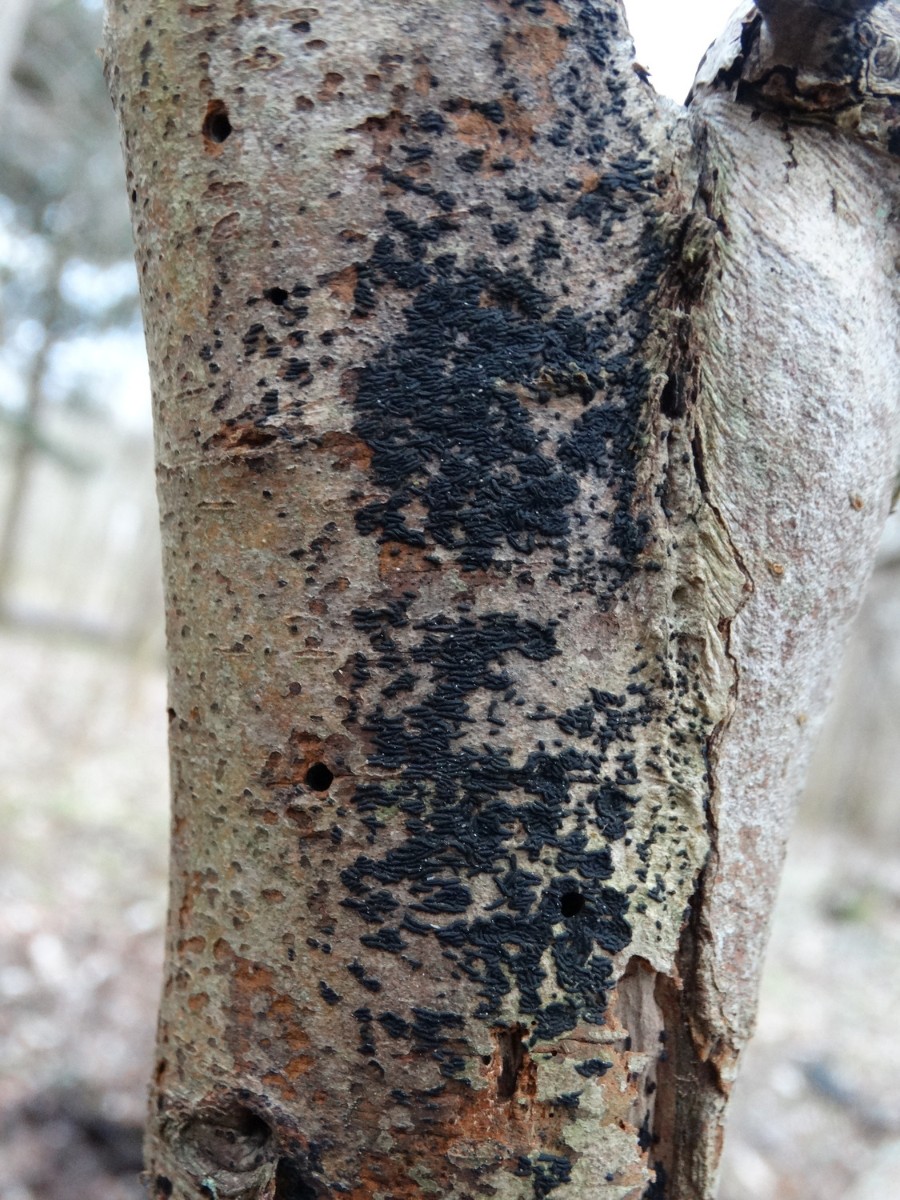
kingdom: Fungi
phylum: Ascomycota
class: Dothideomycetes
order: Hysteriales
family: Hysteriaceae
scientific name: Hysteriaceae
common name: kulmundfamilien
